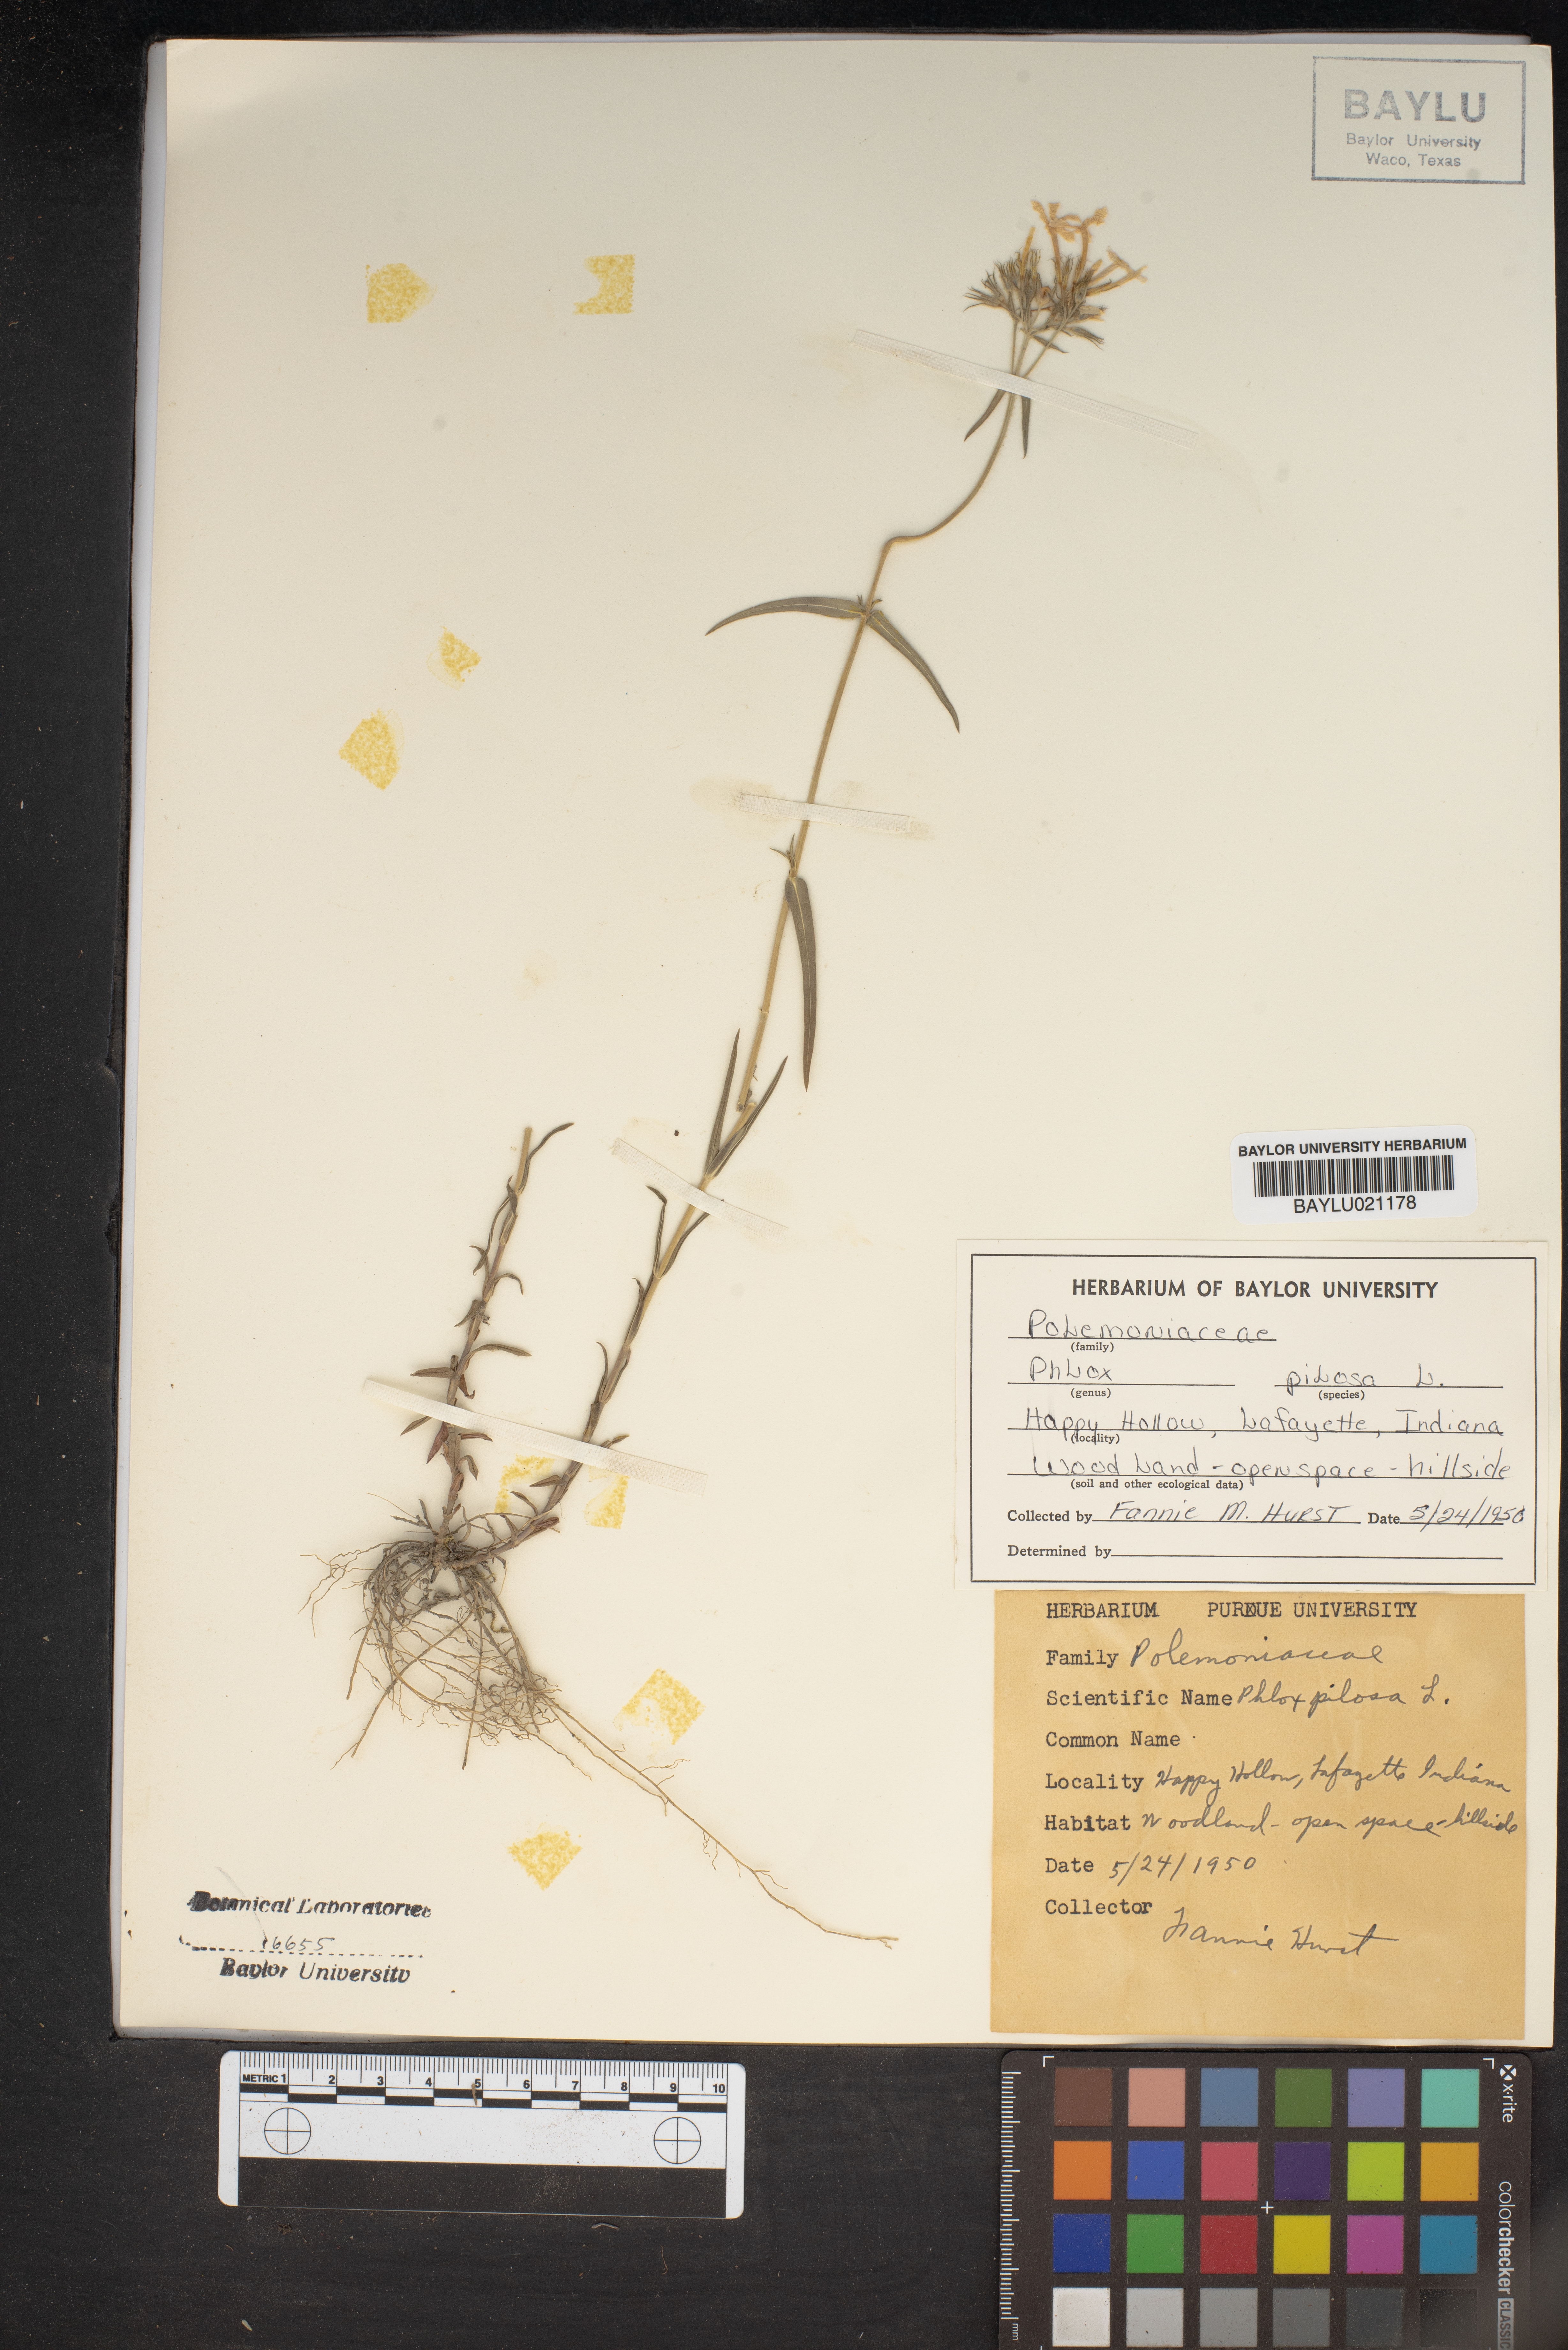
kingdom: Plantae
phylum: Tracheophyta
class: Magnoliopsida
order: Ericales
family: Polemoniaceae
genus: Phlox
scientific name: Phlox pilosa
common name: Prairie phlox
